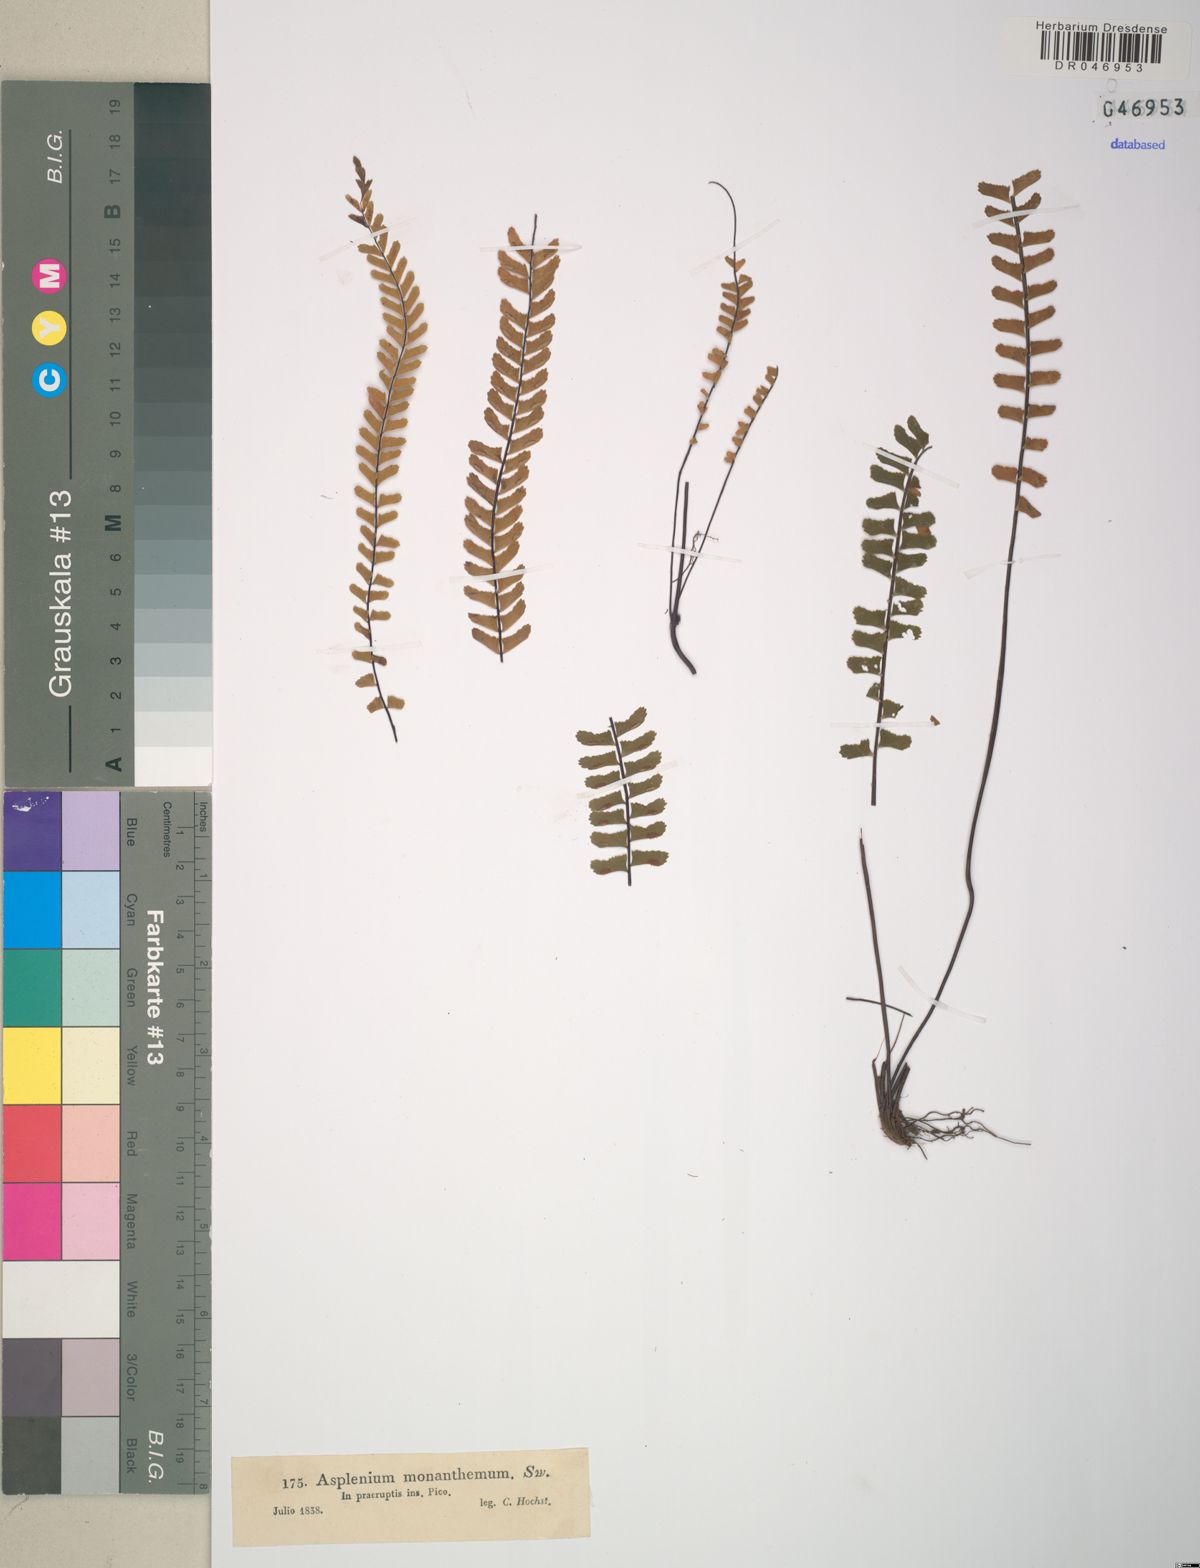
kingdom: Plantae
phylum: Tracheophyta
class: Polypodiopsida
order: Polypodiales
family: Aspleniaceae
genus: Asplenium
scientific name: Asplenium monanthes
